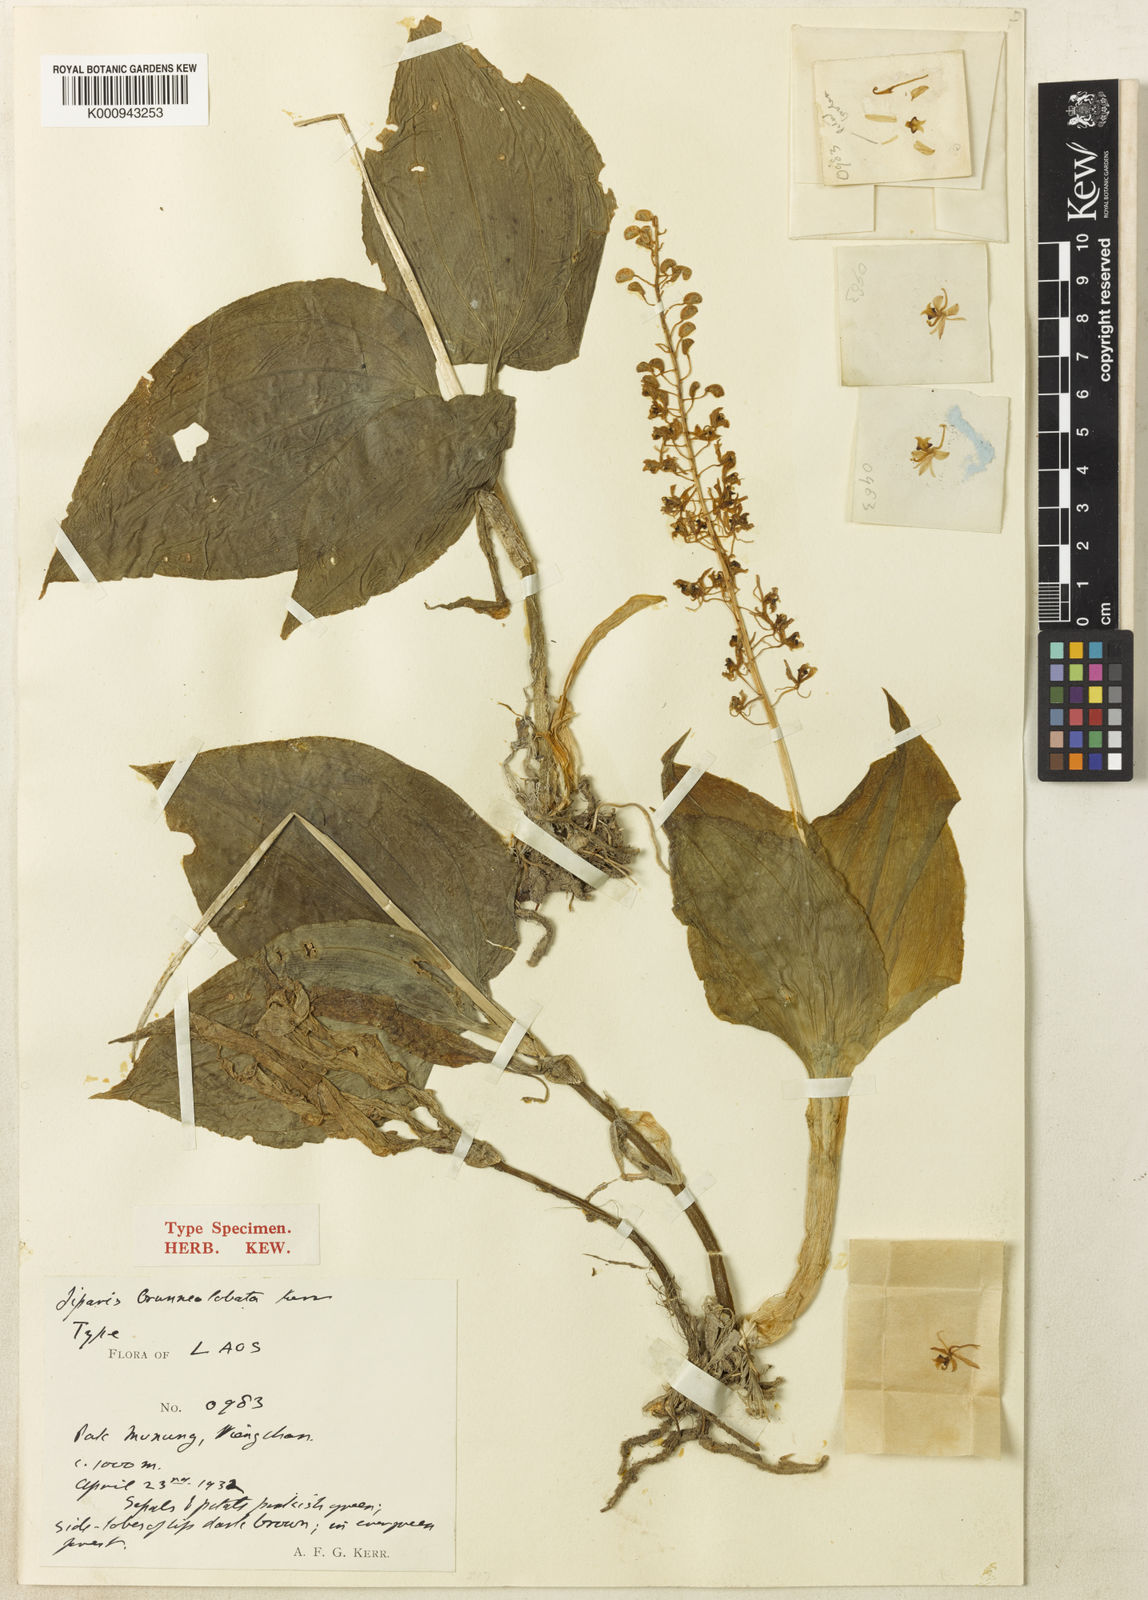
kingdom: Plantae
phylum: Tracheophyta
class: Liliopsida
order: Asparagales
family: Orchidaceae
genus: Liparis
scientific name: Liparis brunneolobata
